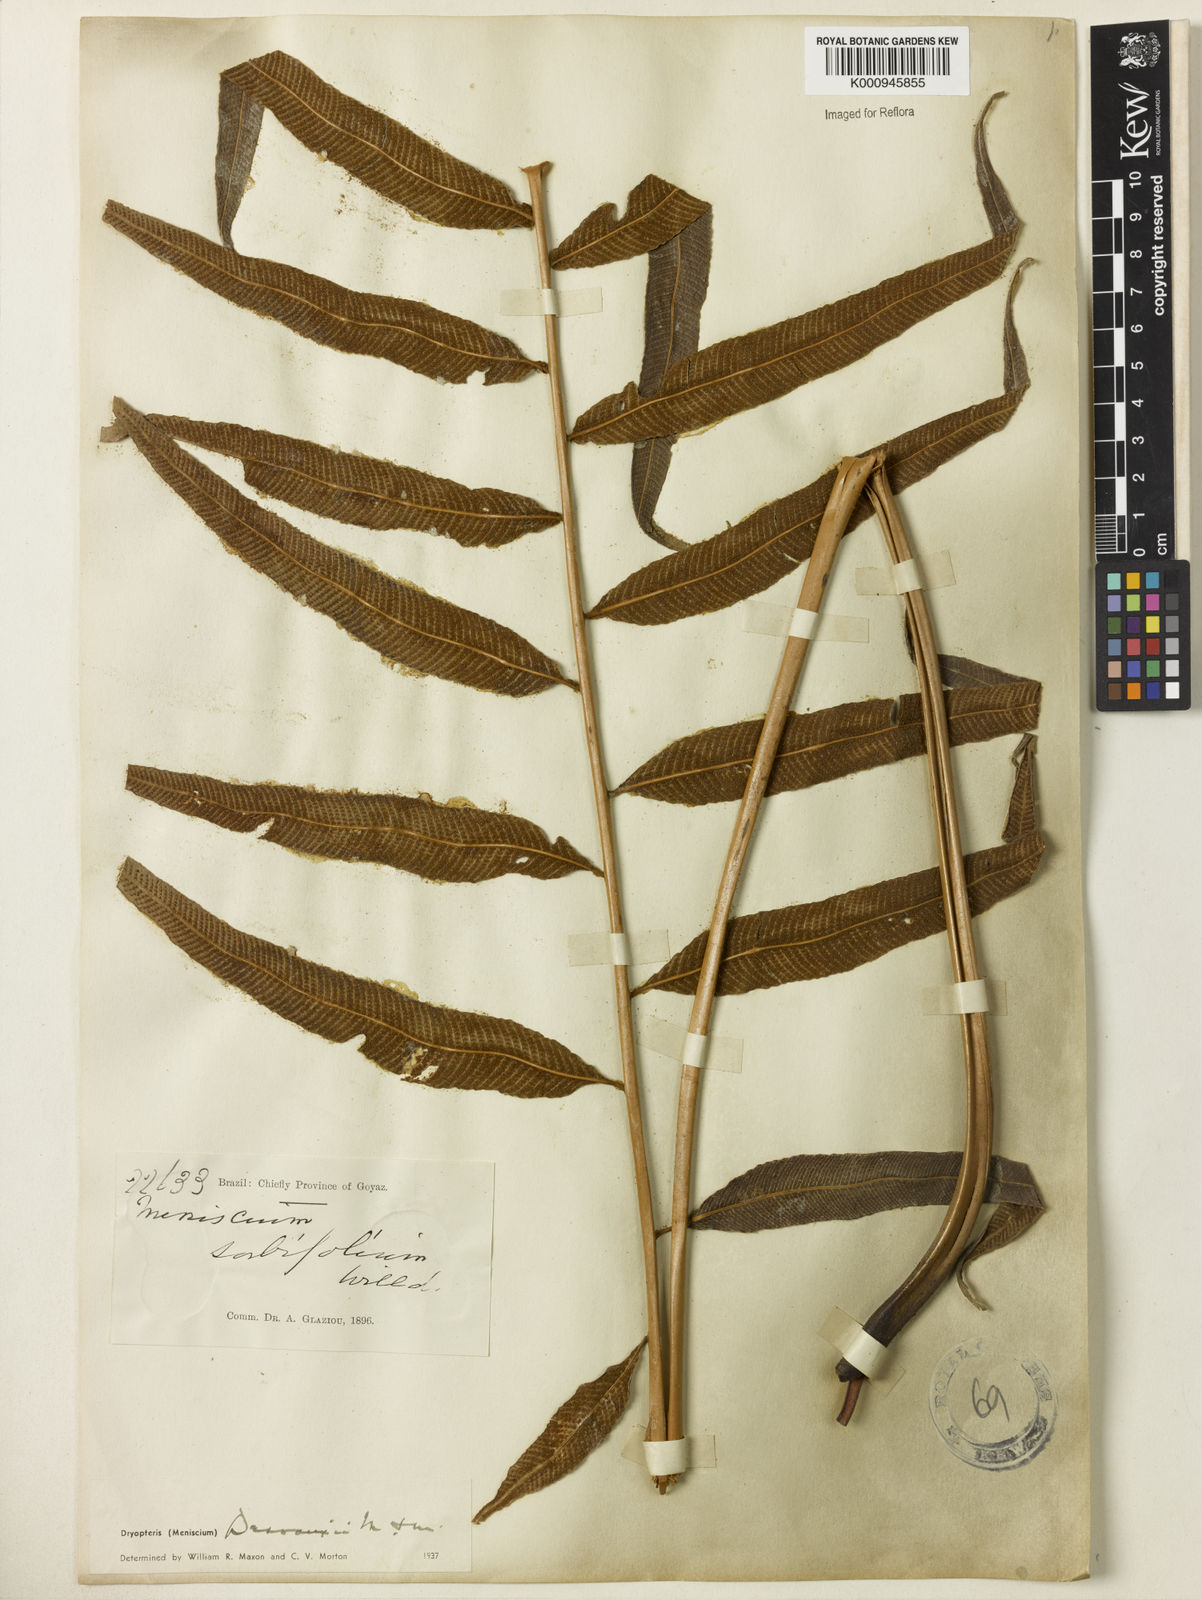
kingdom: Plantae
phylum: Tracheophyta
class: Polypodiopsida
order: Polypodiales
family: Thelypteridaceae
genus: Meniscium
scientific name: Meniscium longifolium
